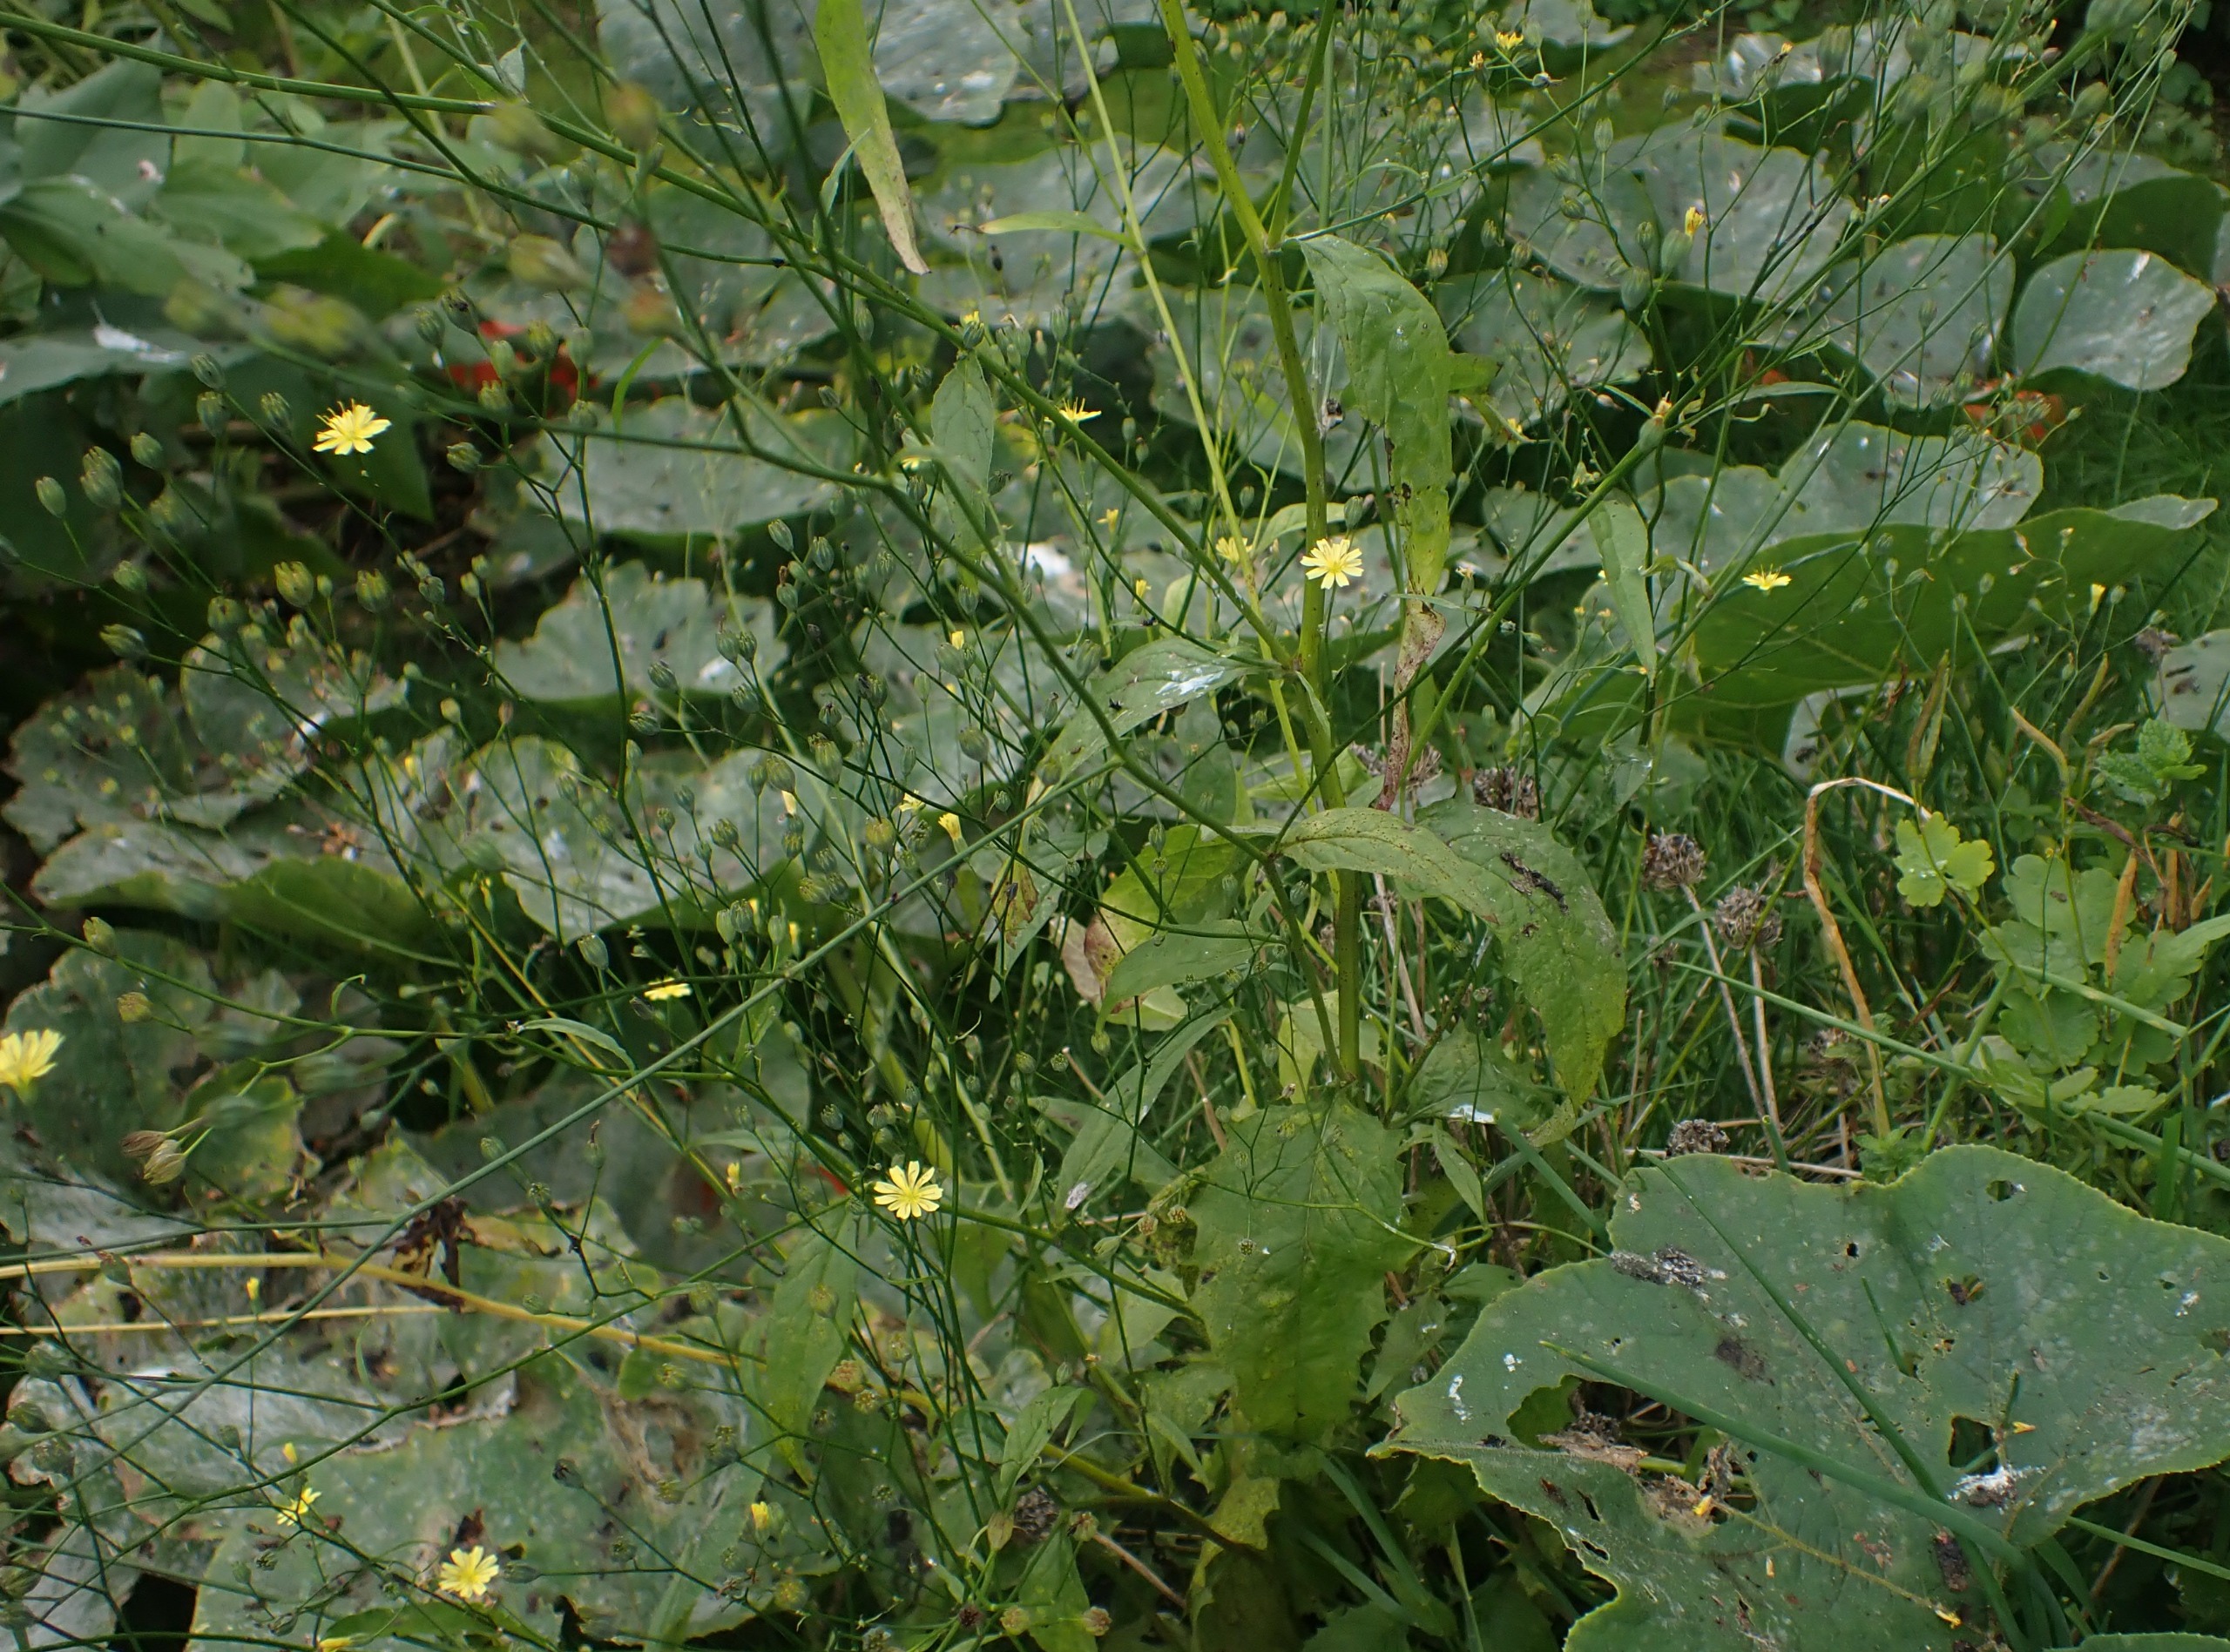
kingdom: Plantae
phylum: Tracheophyta
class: Magnoliopsida
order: Asterales
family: Asteraceae
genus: Lapsana
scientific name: Lapsana communis
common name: Haremad
